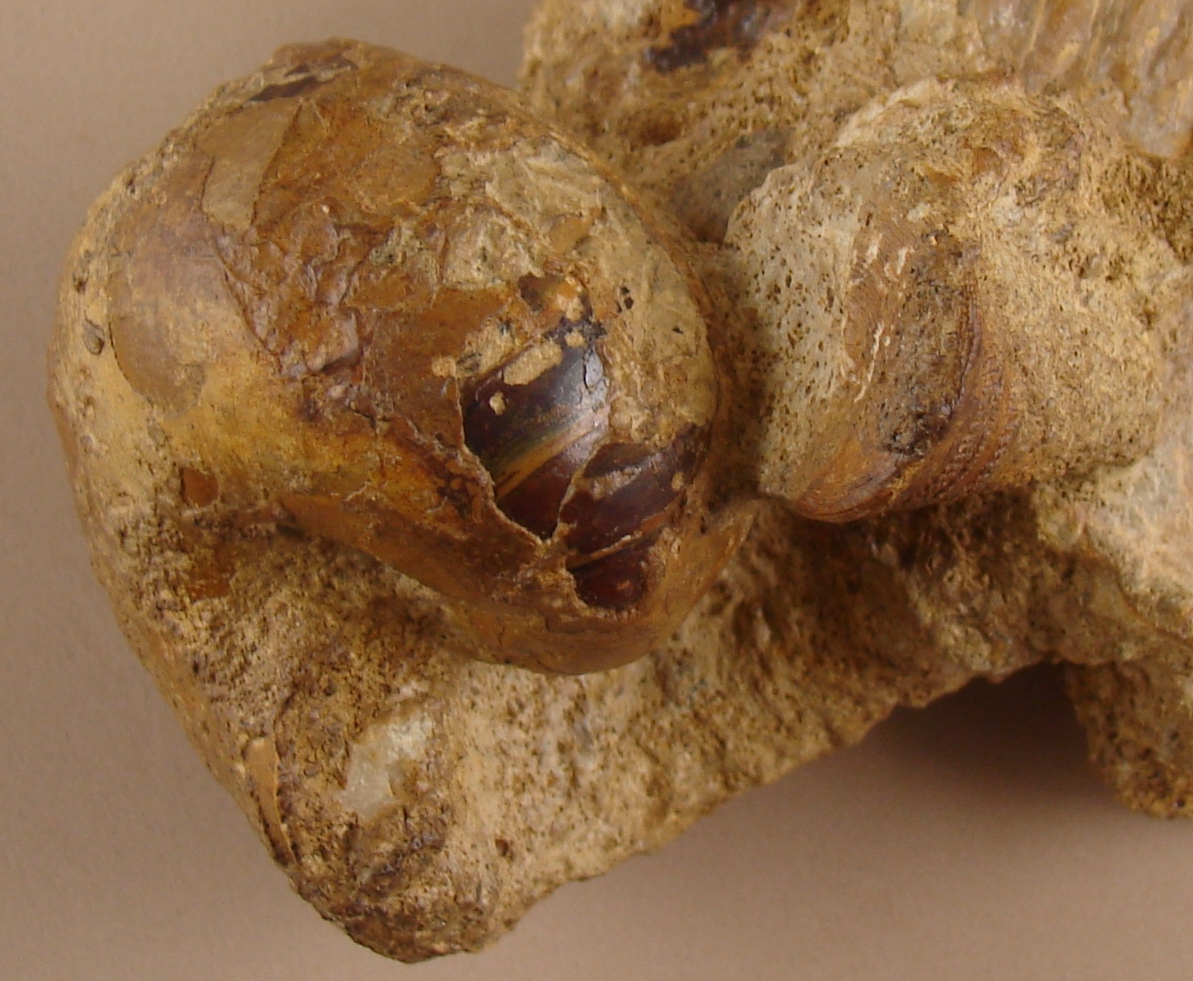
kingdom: Animalia
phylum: Mollusca
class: Gastropoda
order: Pleurotomariida
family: Pleurotomariidae
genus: Pyrgotrochus
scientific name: Pyrgotrochus elongatus
